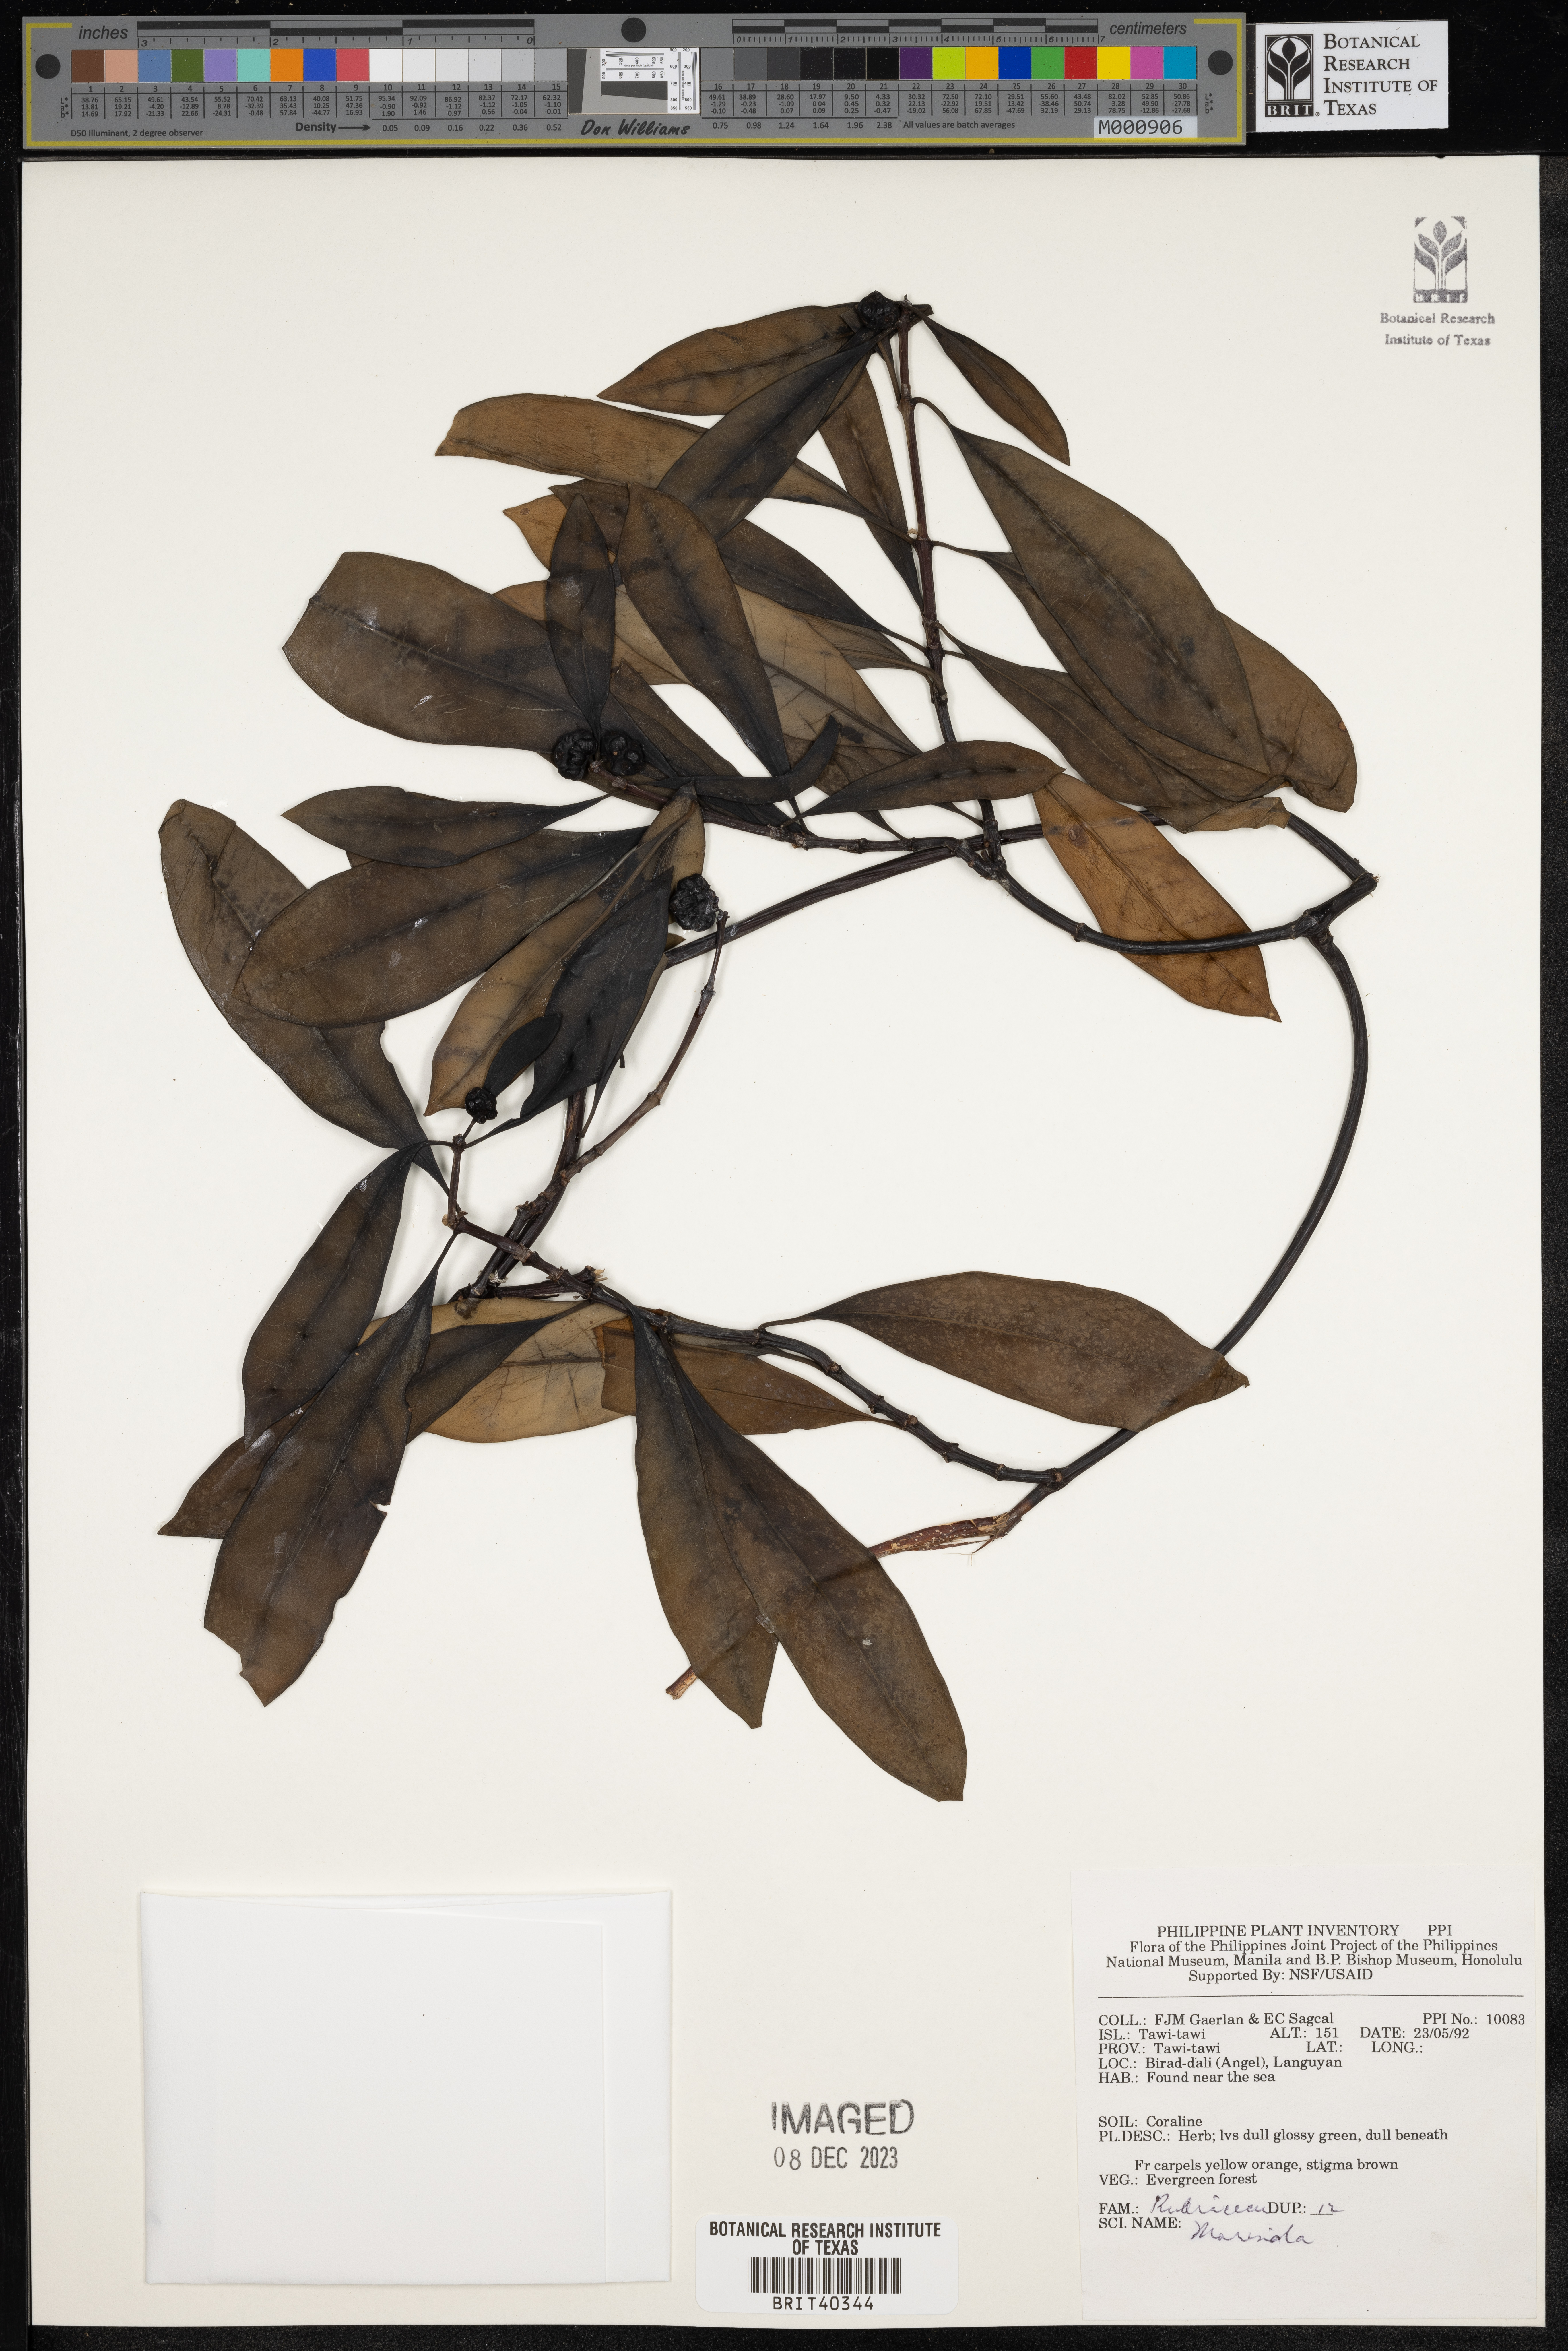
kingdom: Plantae
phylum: Tracheophyta
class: Magnoliopsida
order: Gentianales
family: Rubiaceae
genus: Morinda
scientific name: Morinda
